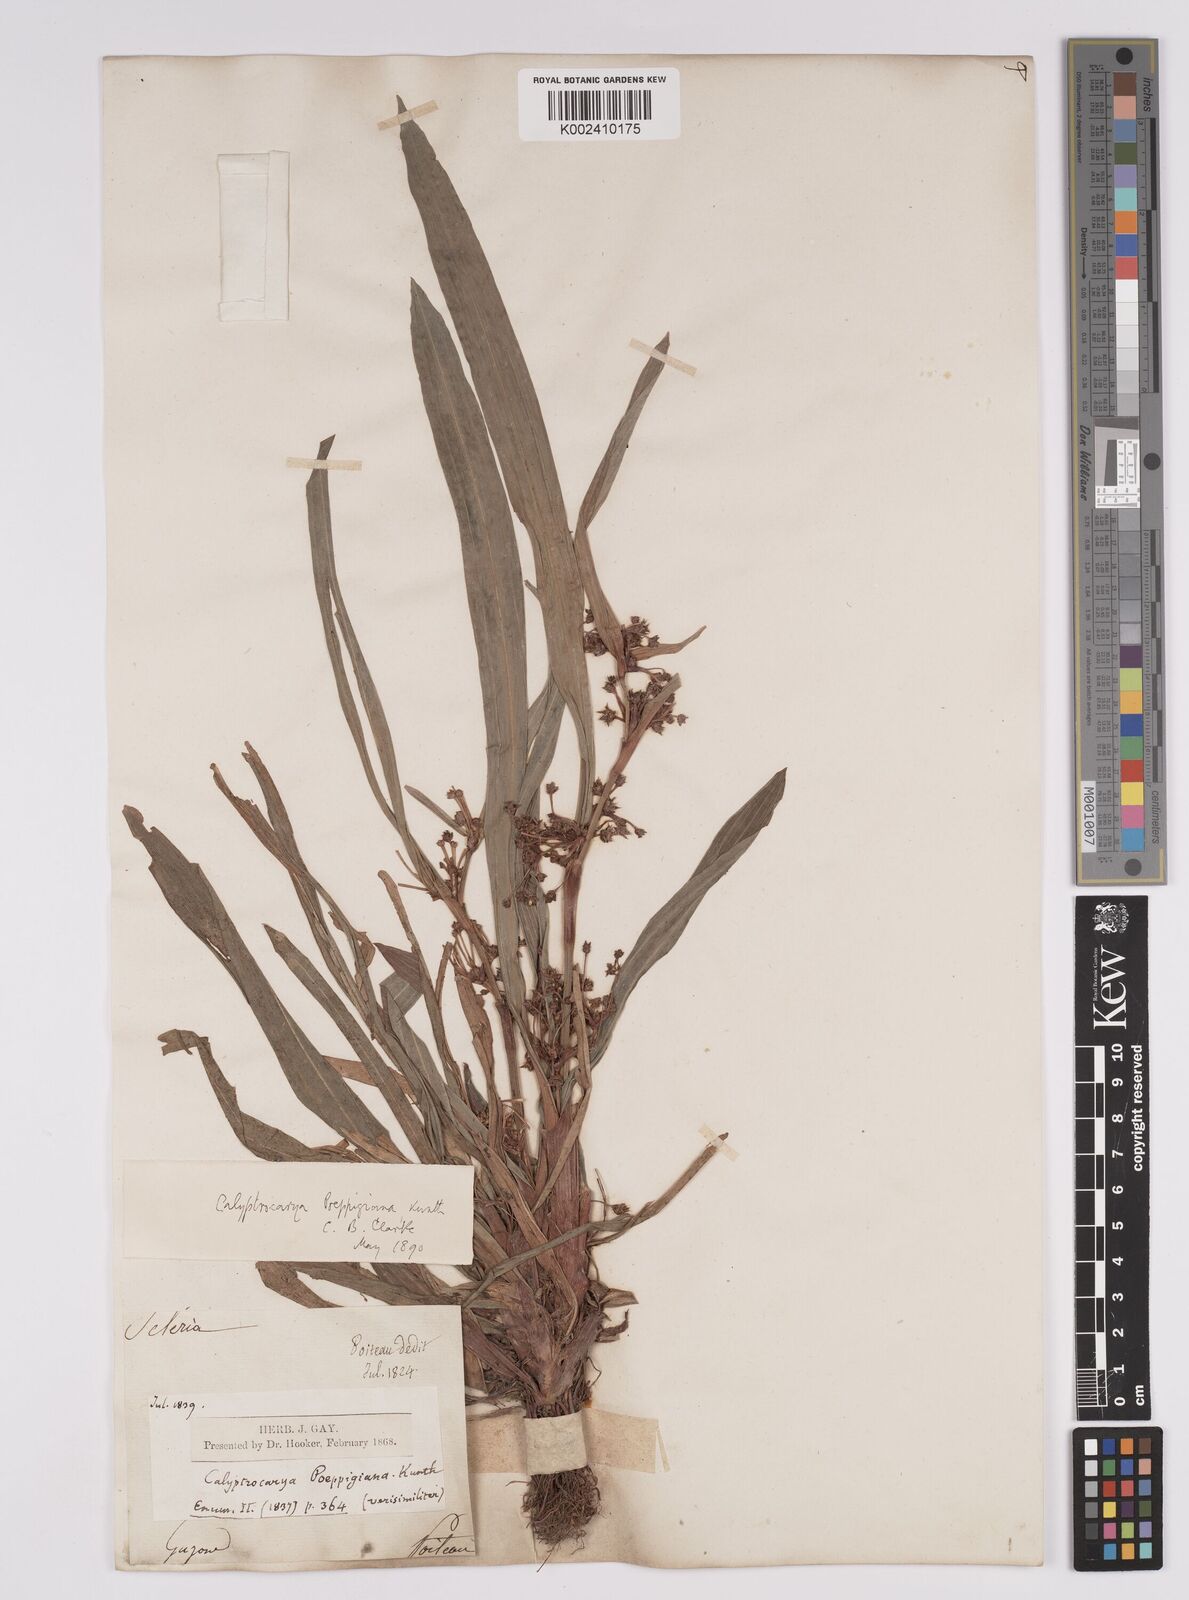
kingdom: Plantae
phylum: Tracheophyta
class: Liliopsida
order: Poales
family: Cyperaceae
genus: Calyptrocarya
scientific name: Calyptrocarya poeppigiana
